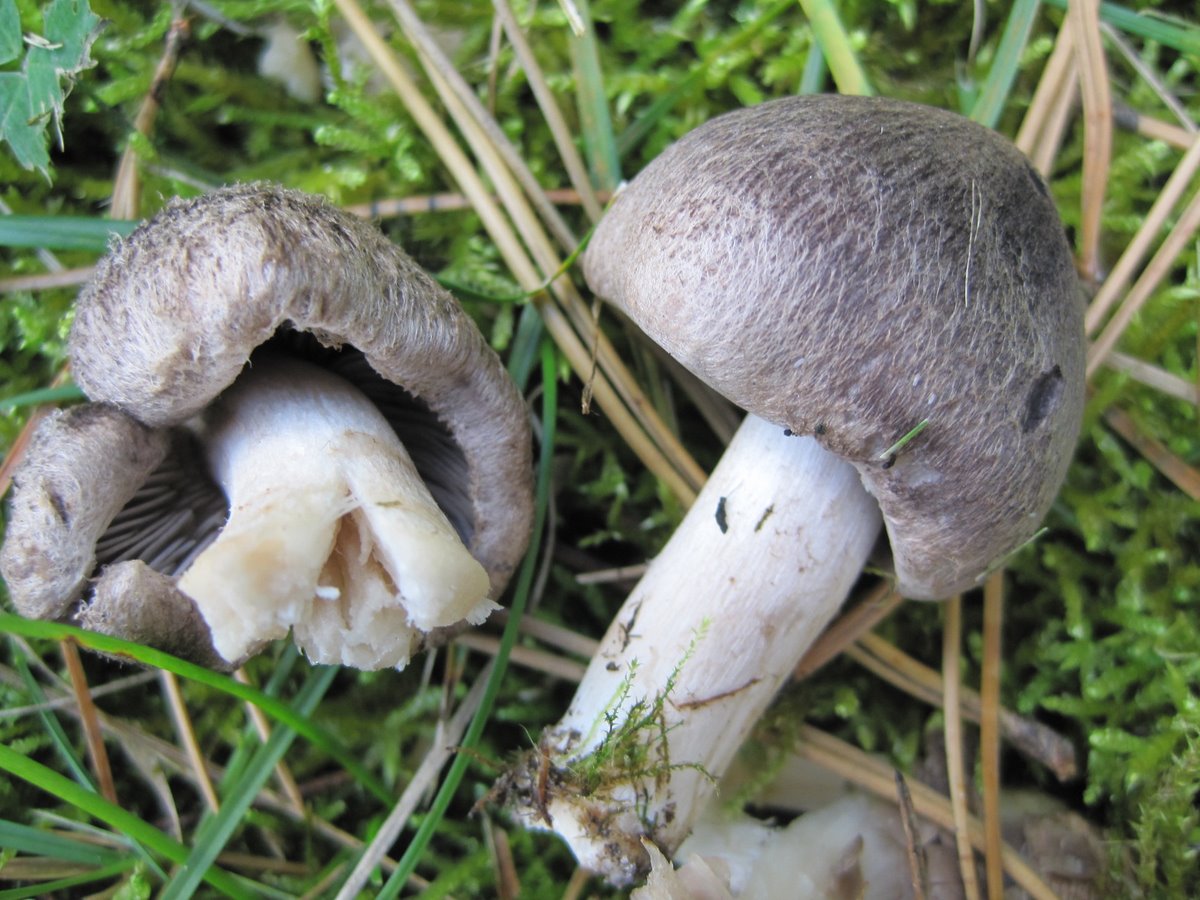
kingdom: Fungi
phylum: Basidiomycota
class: Agaricomycetes
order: Agaricales
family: Tricholomataceae
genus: Tricholoma
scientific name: Tricholoma terreum
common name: jordfarvet ridderhat
